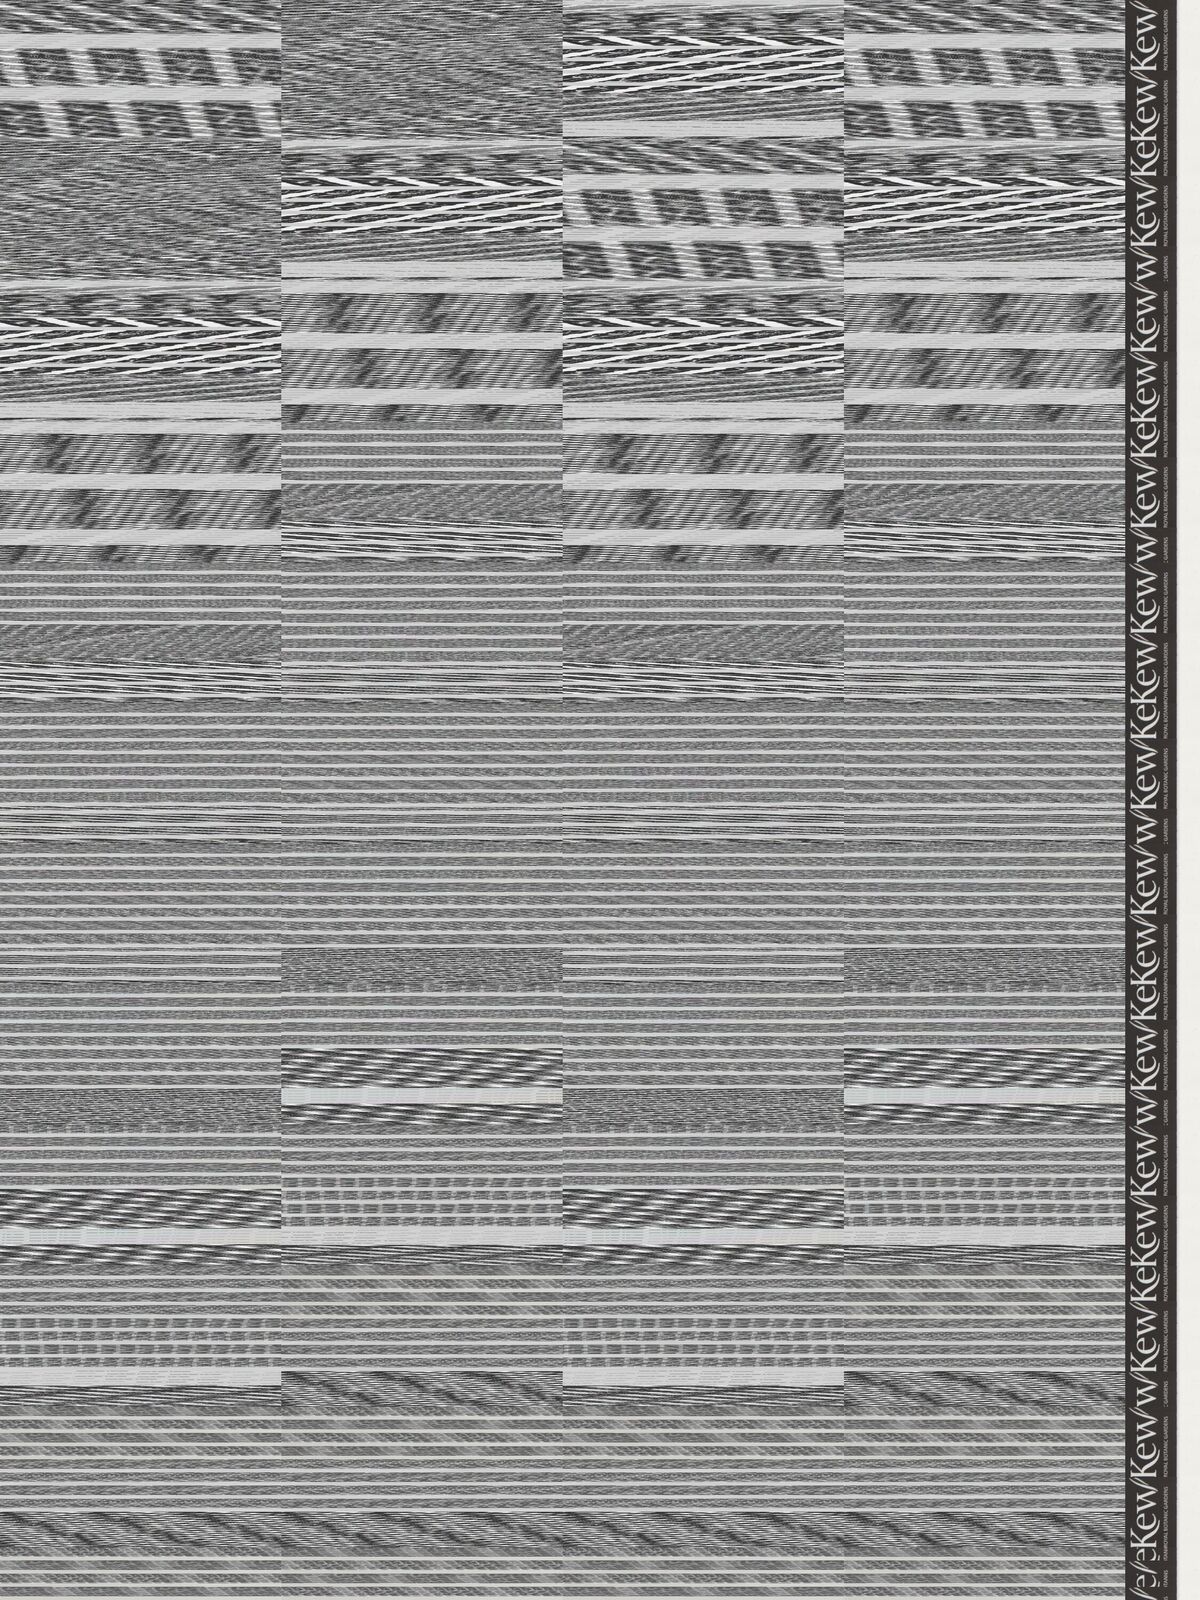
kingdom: Plantae
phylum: Tracheophyta
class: Magnoliopsida
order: Asterales
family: Asteraceae
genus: Acourtia
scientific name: Acourtia turbinata
